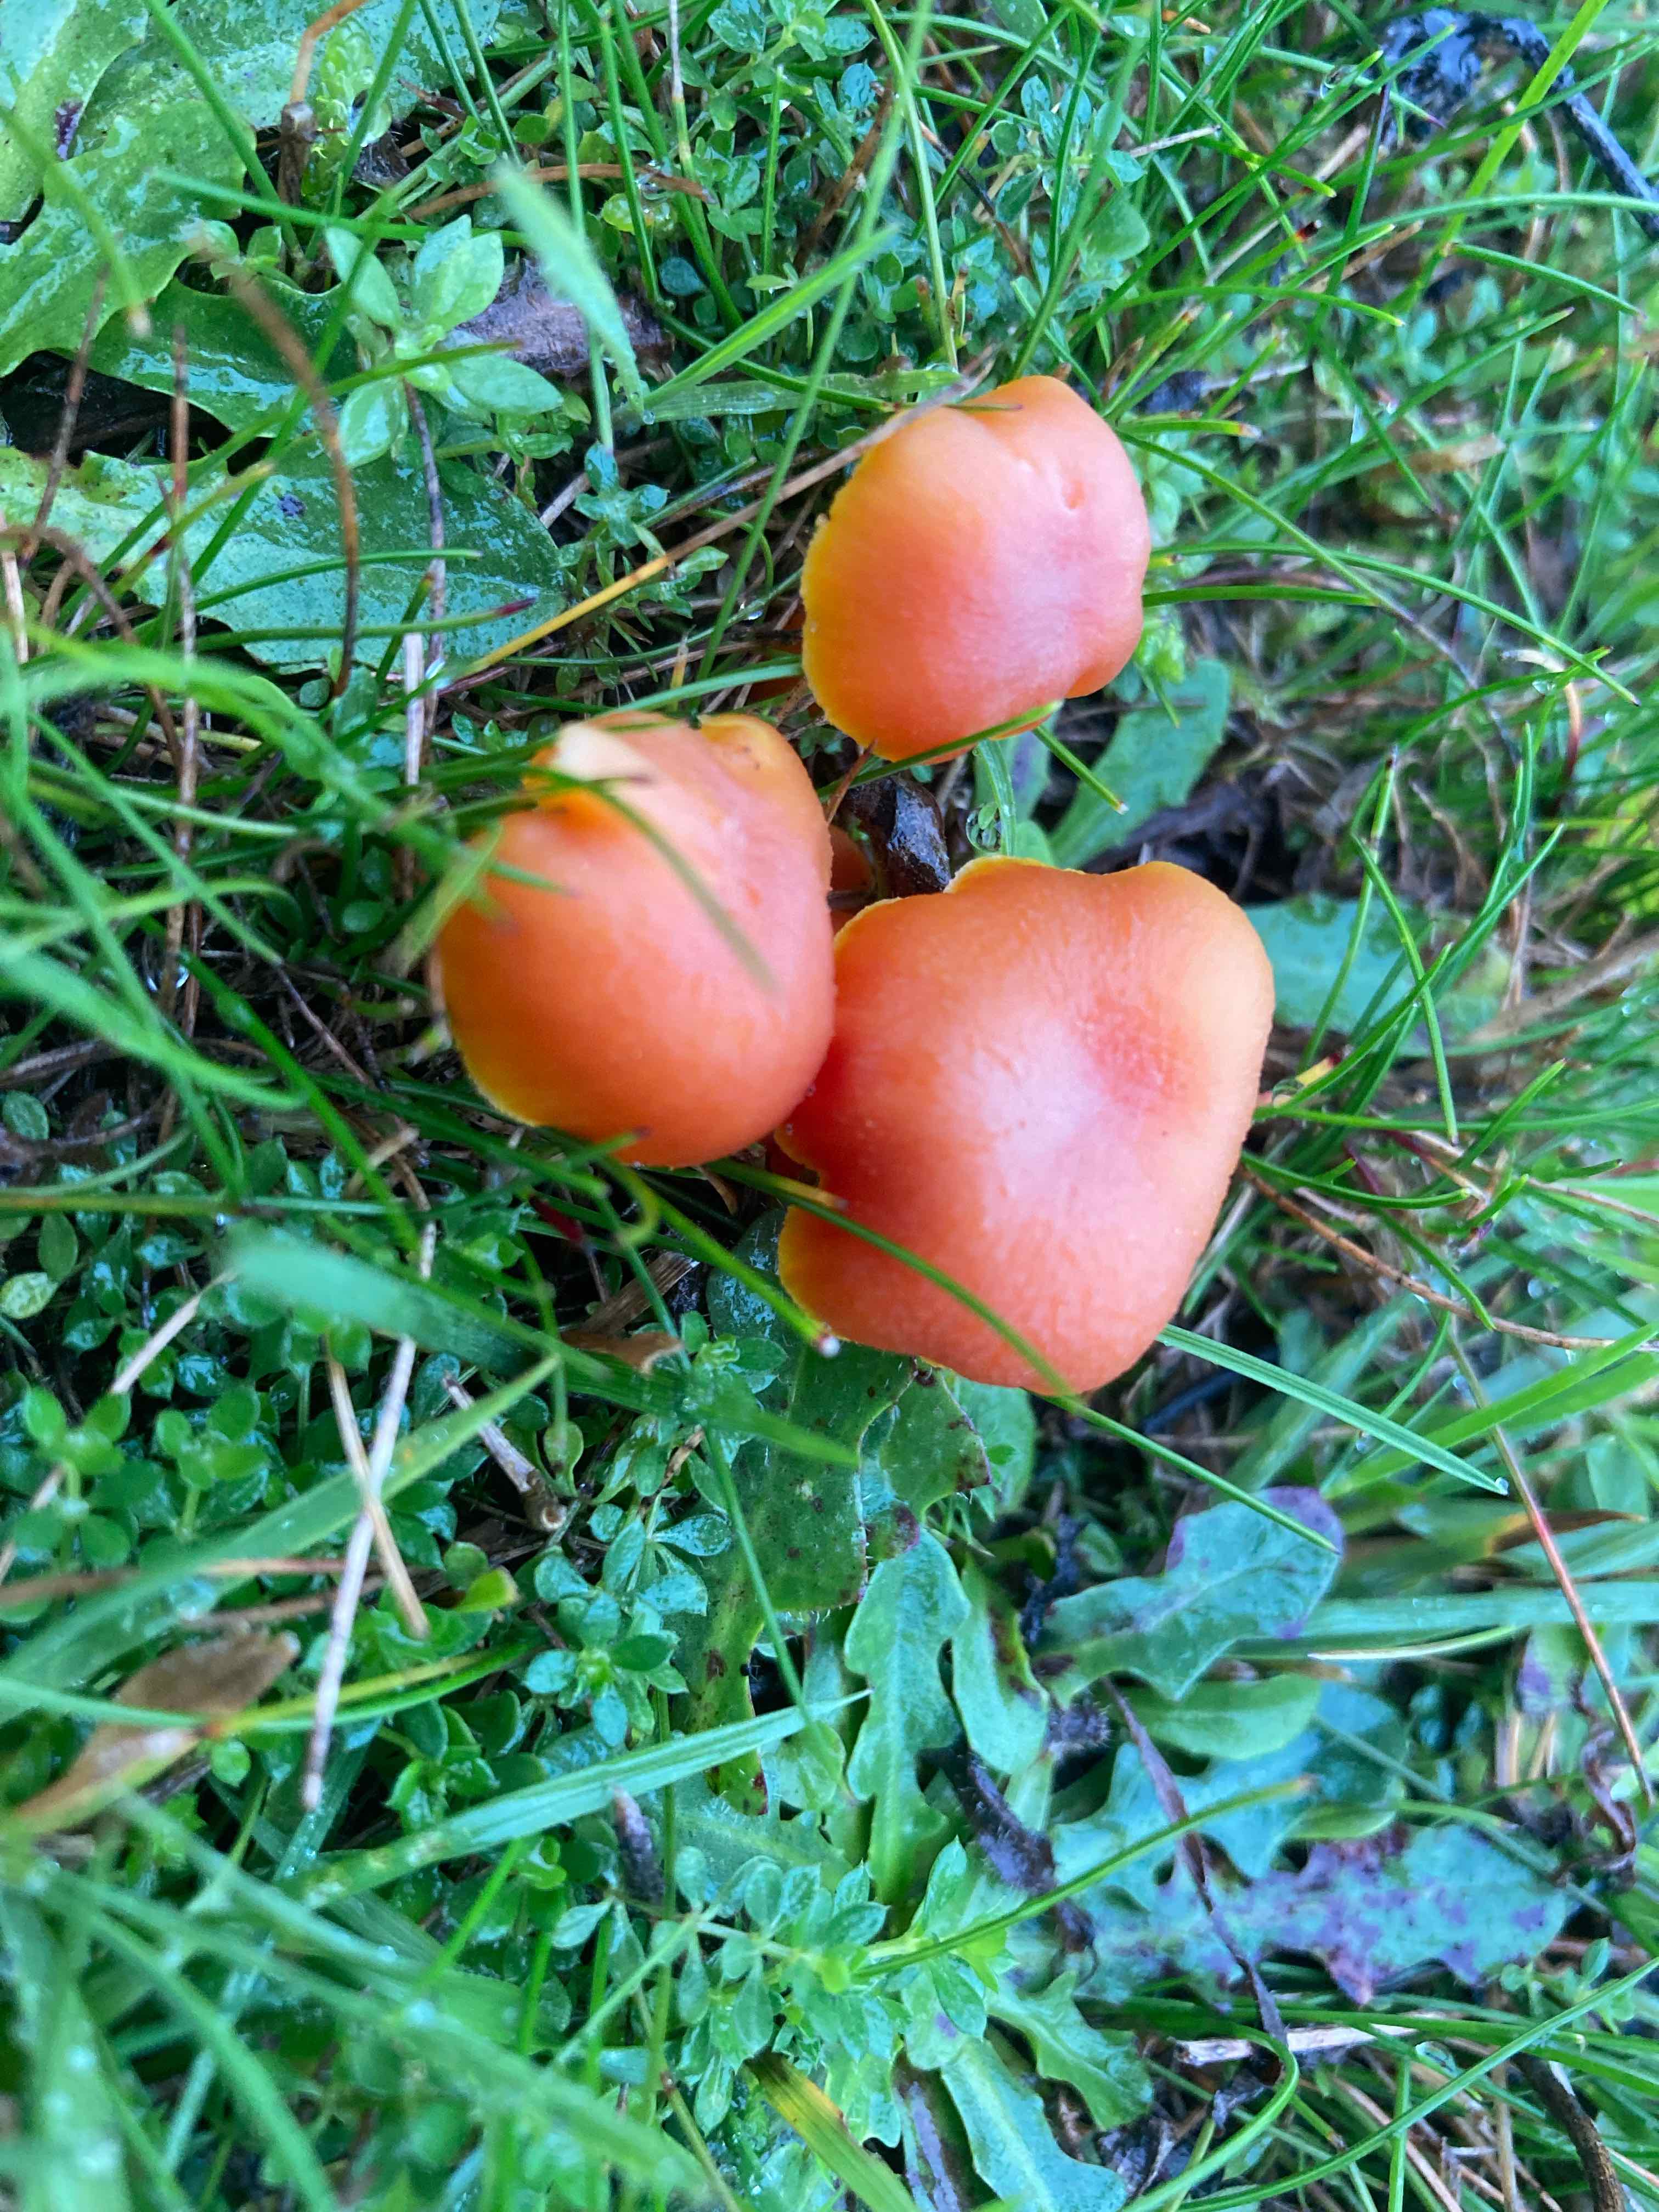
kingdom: Fungi
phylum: Basidiomycota
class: Agaricomycetes
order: Agaricales
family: Hygrophoraceae
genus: Hygrocybe
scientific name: Hygrocybe miniata
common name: mønje-vokshat
